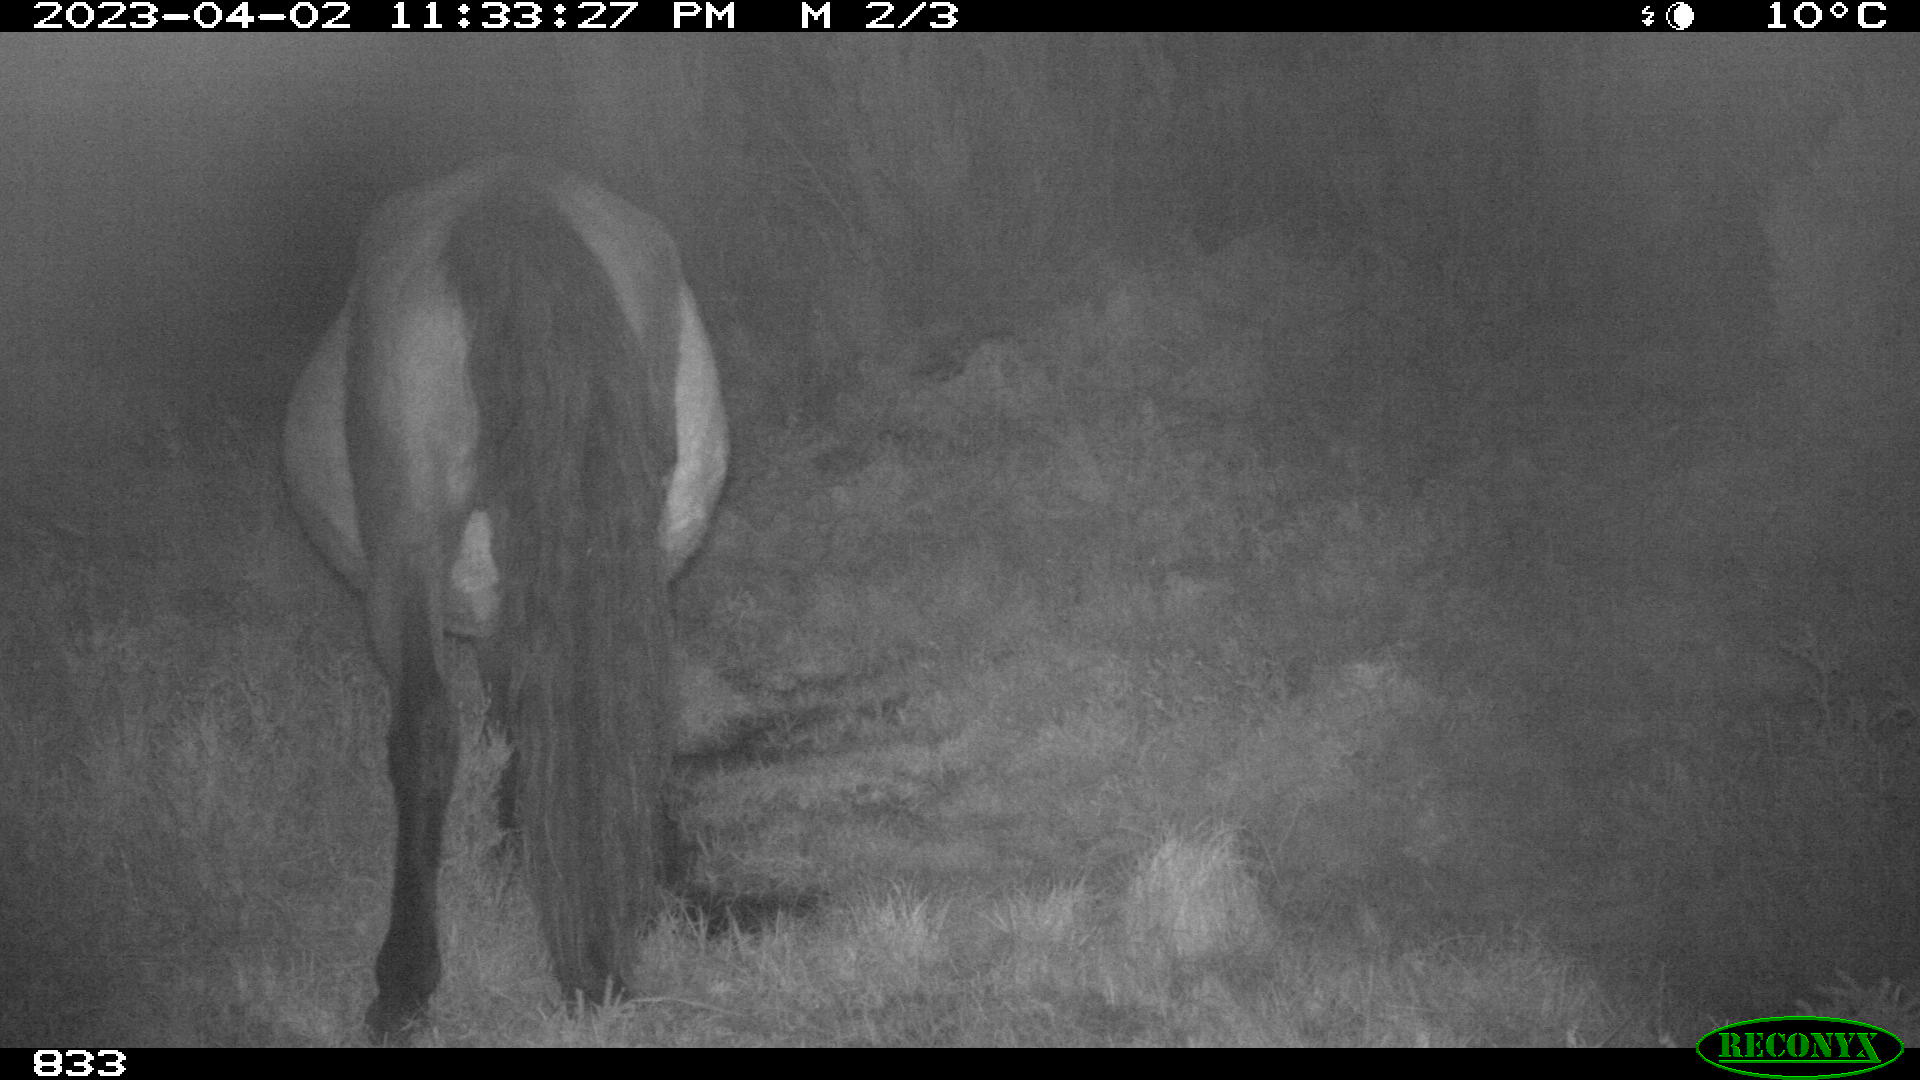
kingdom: Animalia
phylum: Chordata
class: Mammalia
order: Perissodactyla
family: Equidae
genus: Equus
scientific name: Equus caballus
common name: Horse
